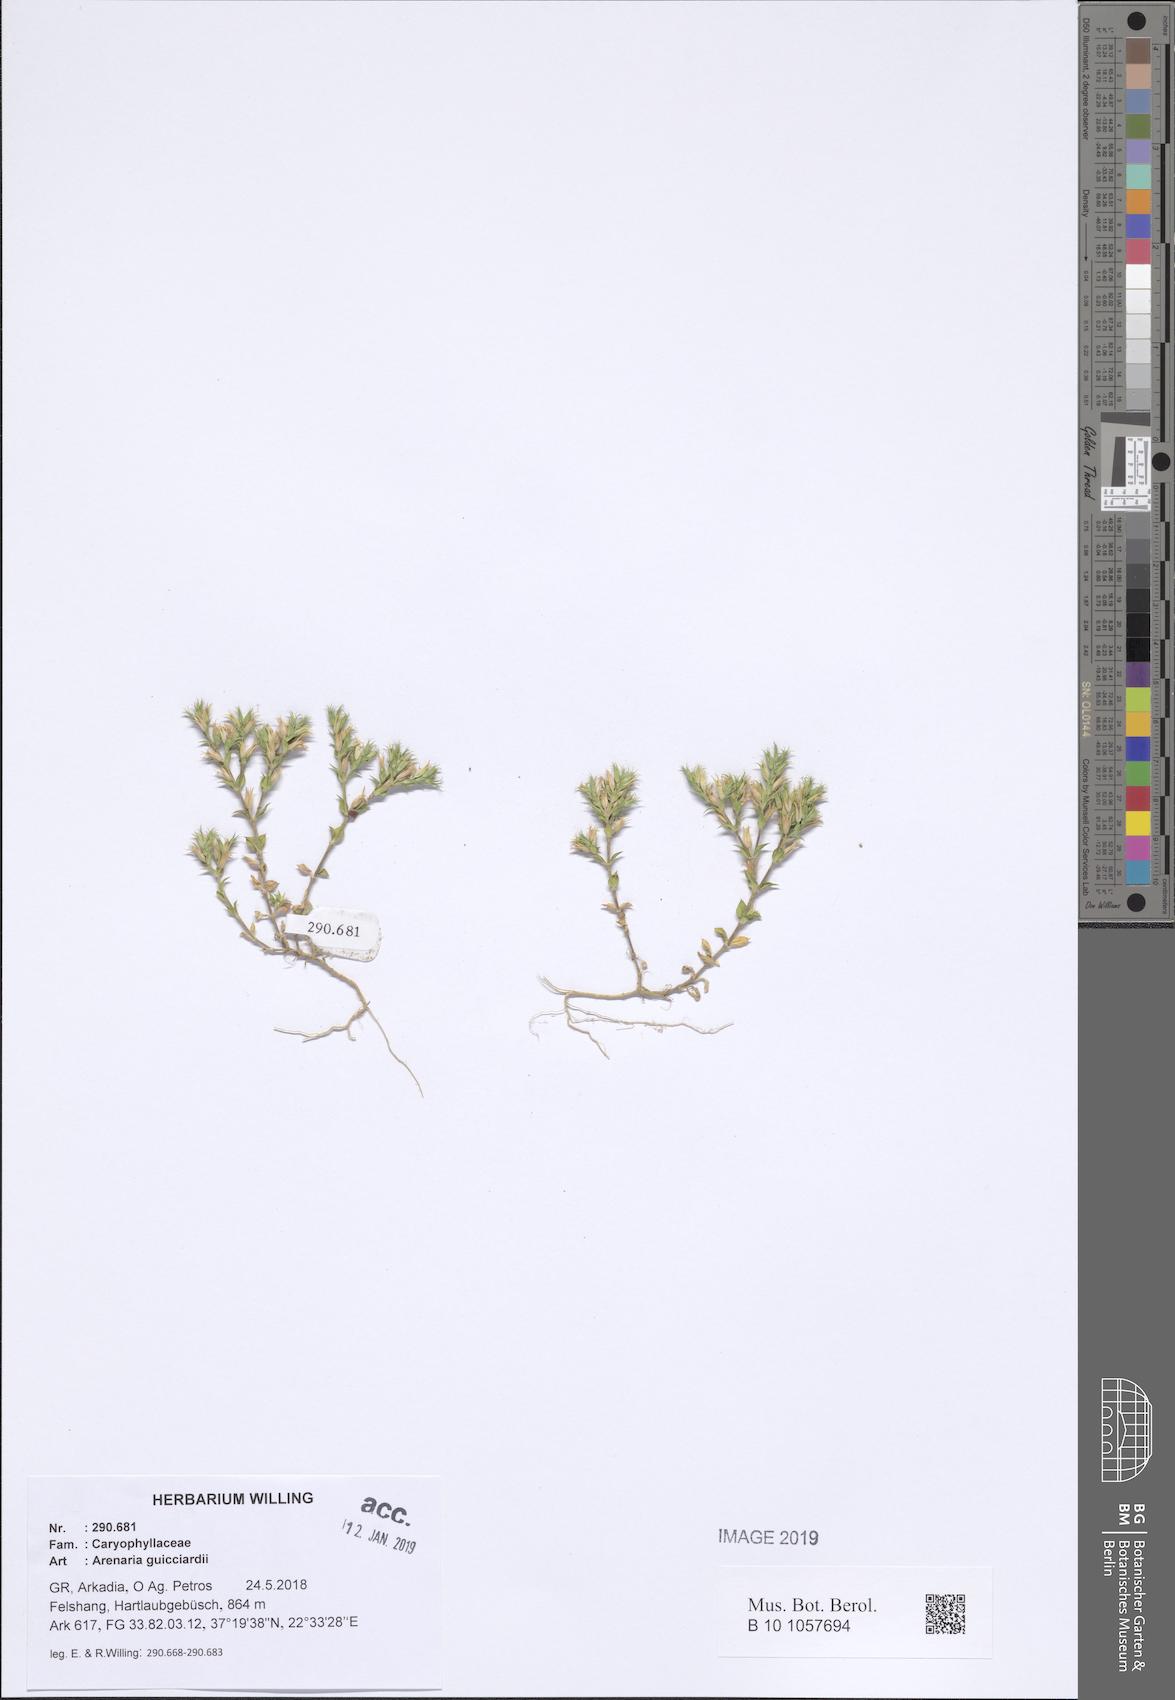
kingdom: Plantae
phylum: Tracheophyta
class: Magnoliopsida
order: Caryophyllales
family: Caryophyllaceae
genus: Arenaria
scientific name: Arenaria guicciardii
